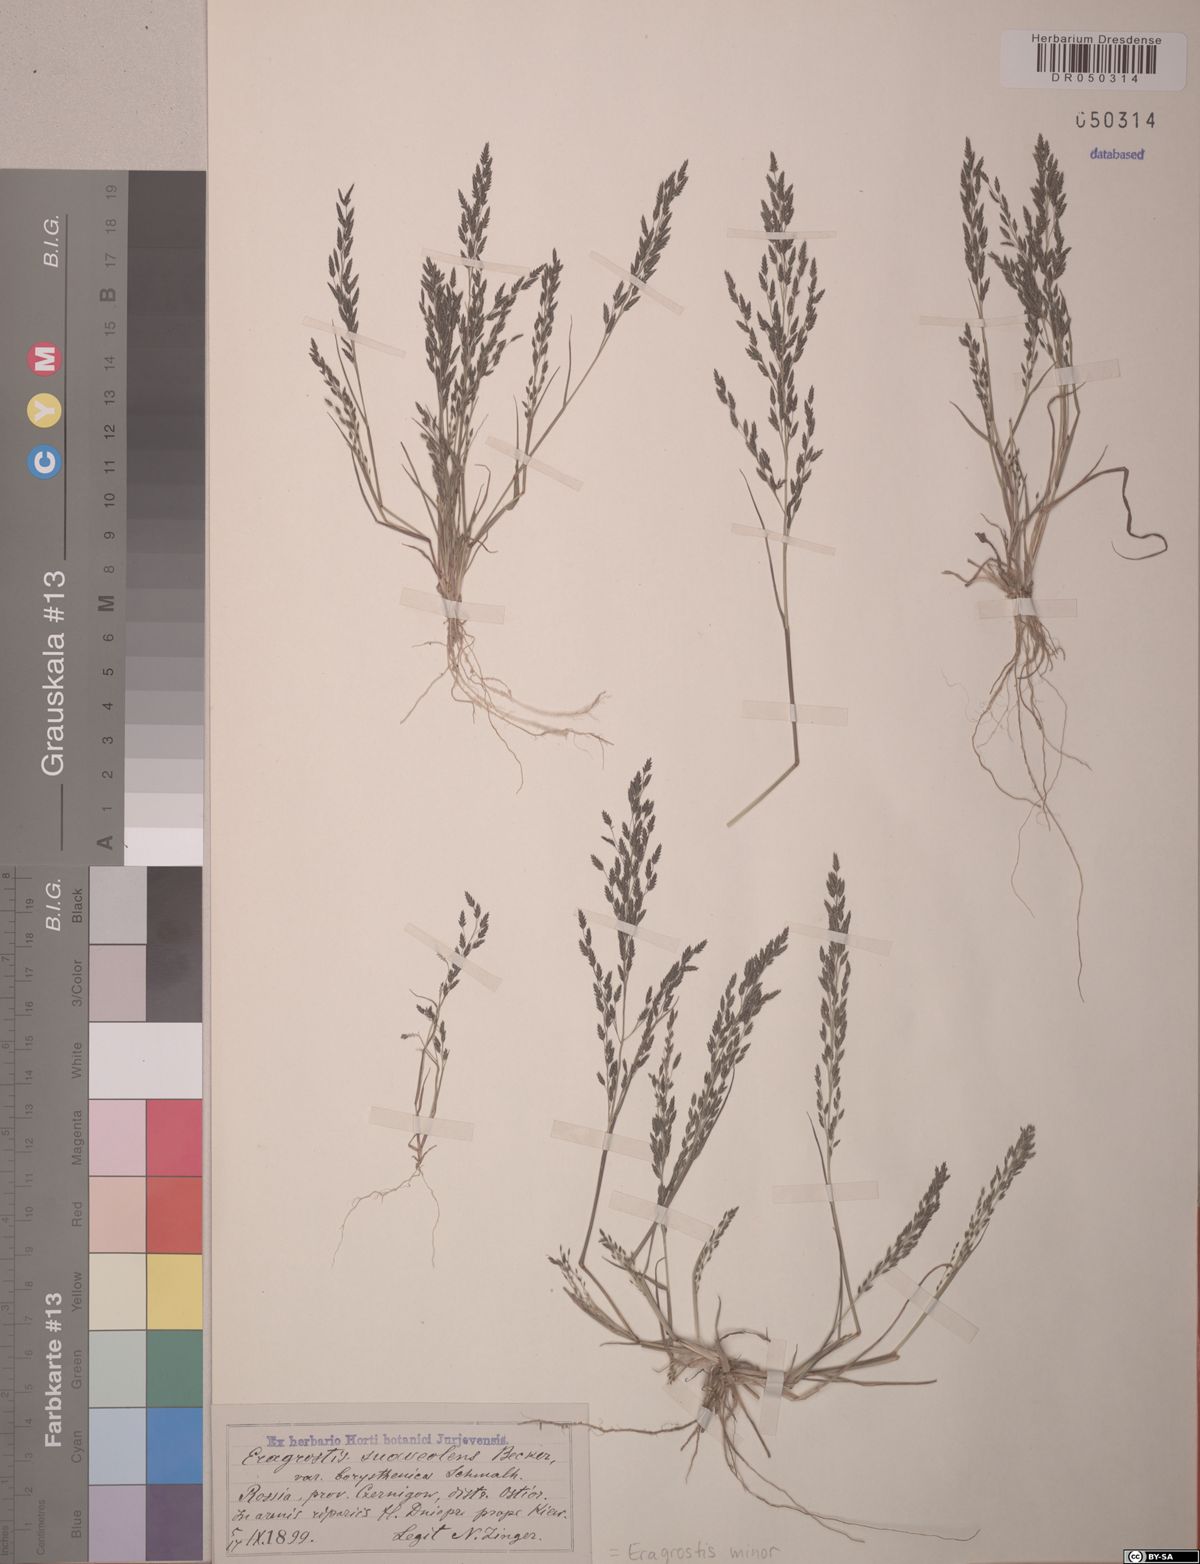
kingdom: Plantae
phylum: Tracheophyta
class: Liliopsida
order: Poales
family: Poaceae
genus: Eragrostis
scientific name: Eragrostis minor
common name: Small love-grass
